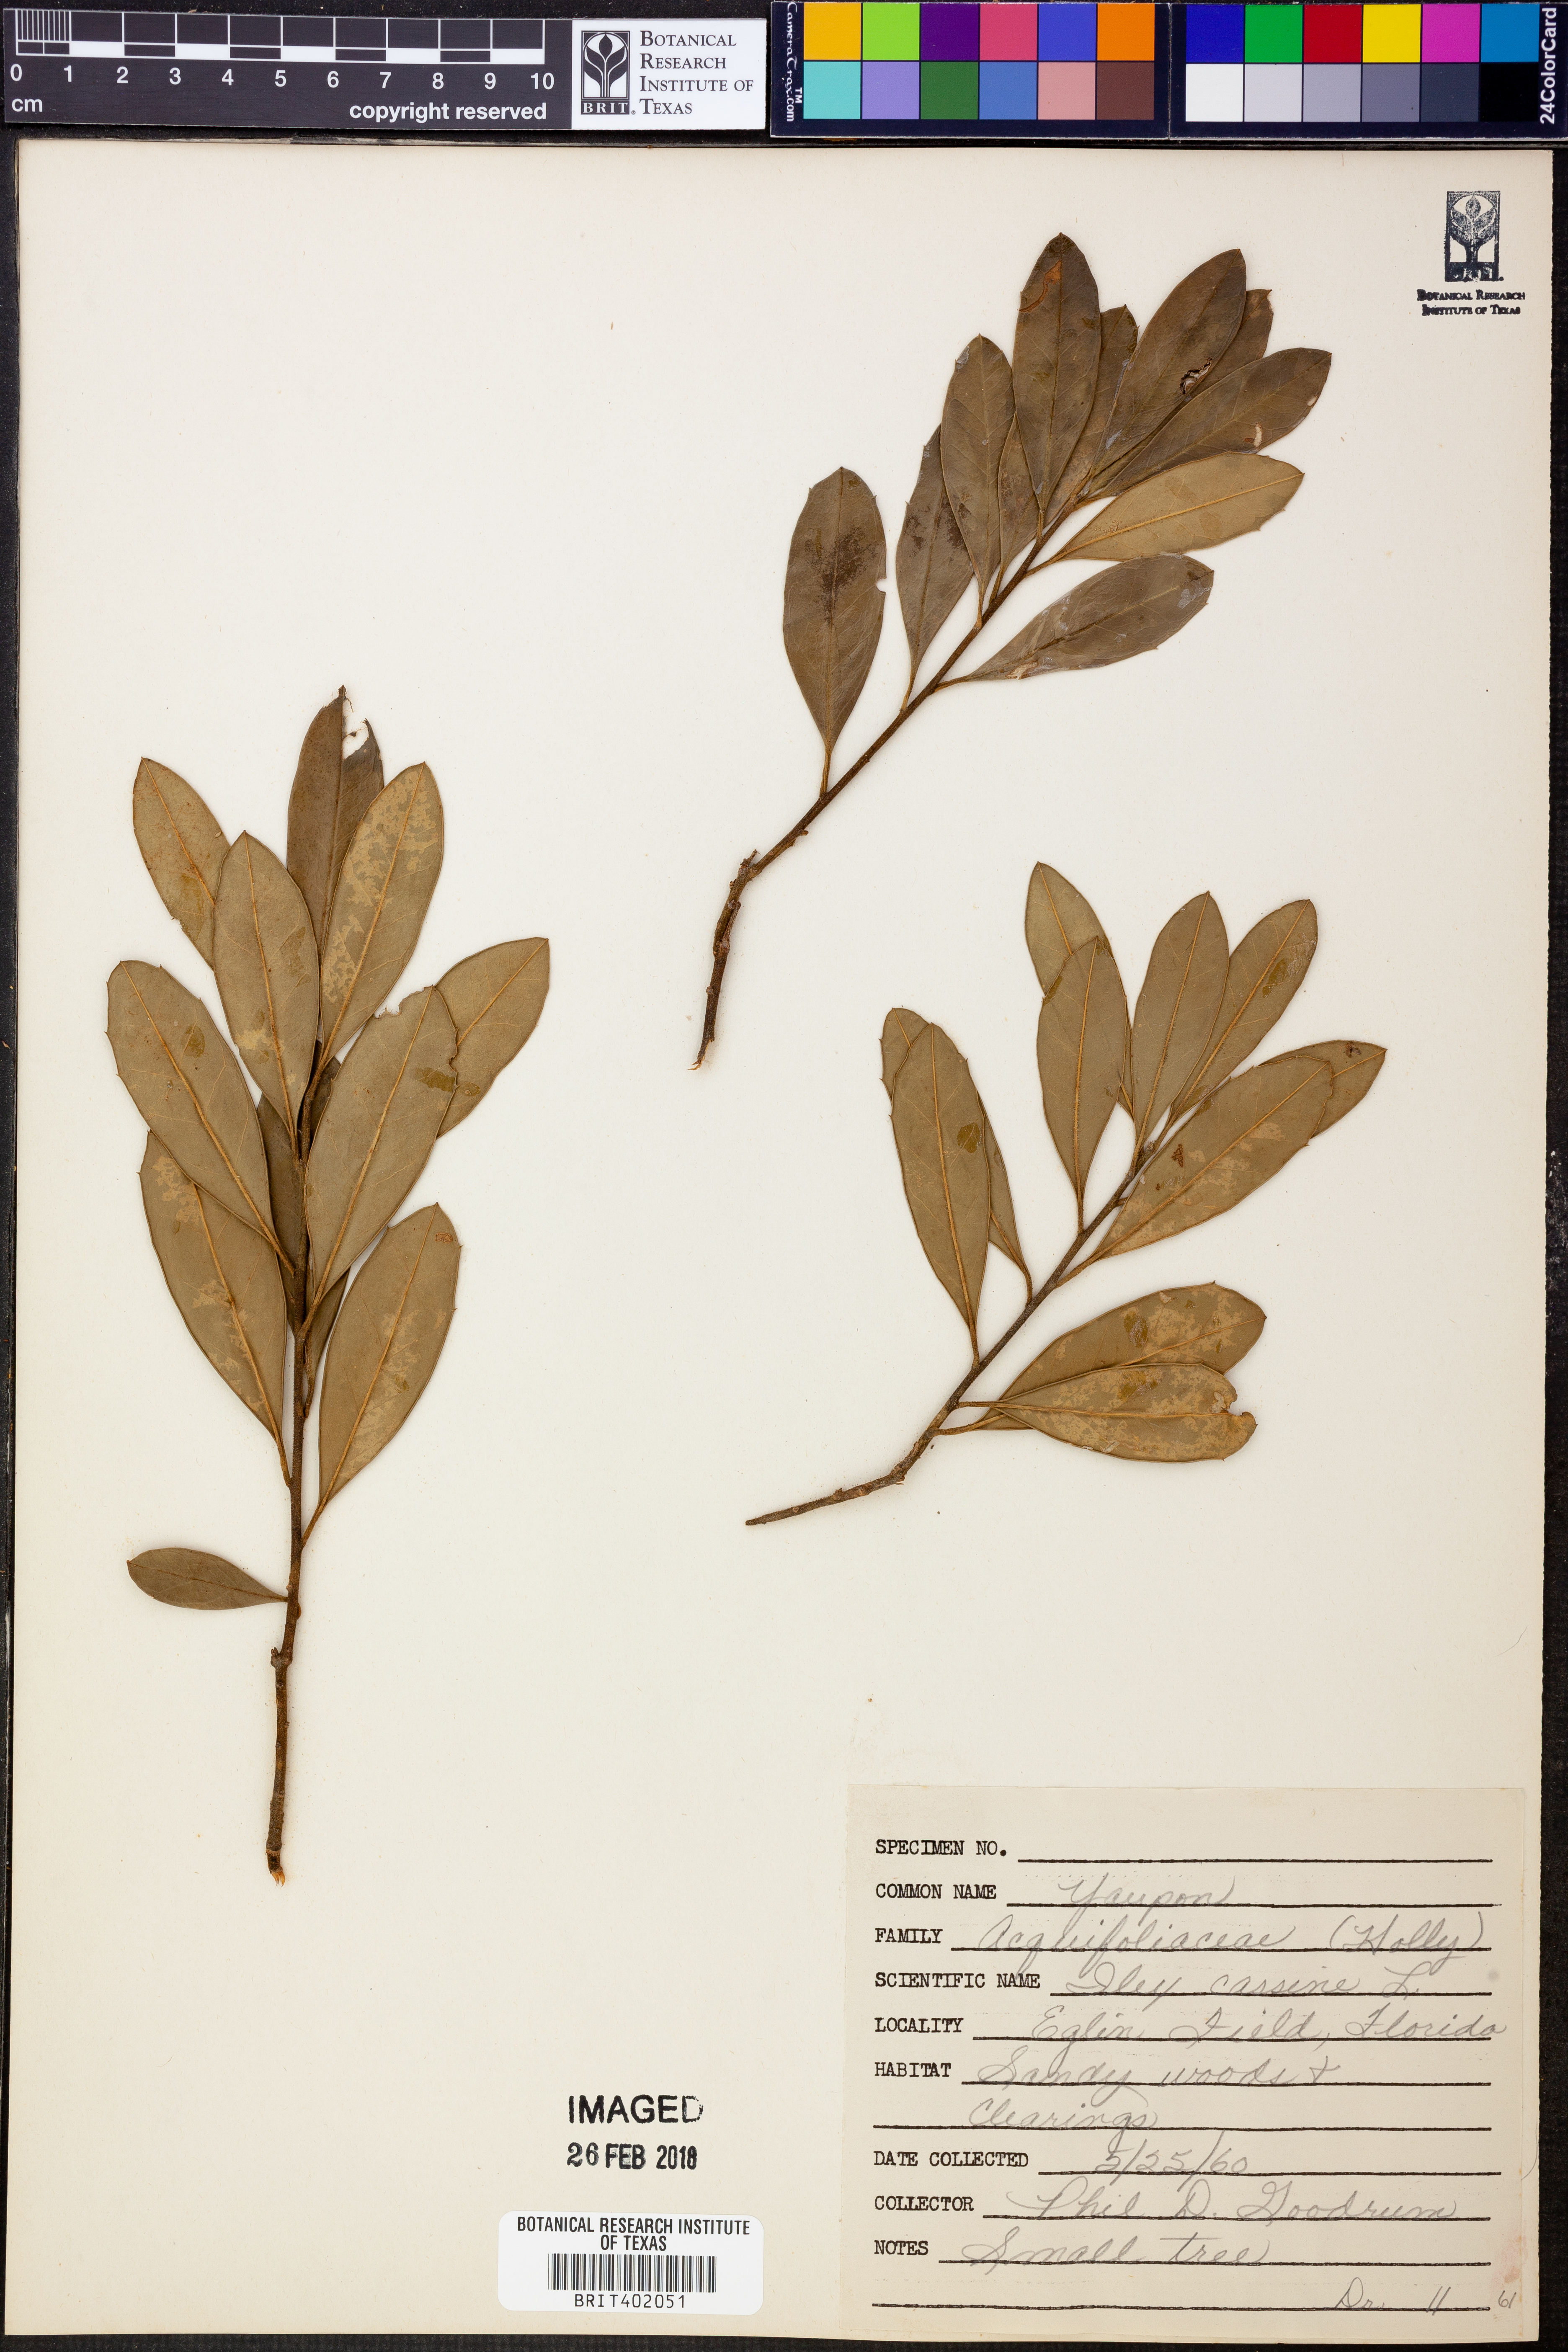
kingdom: Plantae
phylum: Tracheophyta
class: Magnoliopsida
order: Aquifoliales
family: Aquifoliaceae
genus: Ilex
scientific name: Ilex cassine
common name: Dahoon
